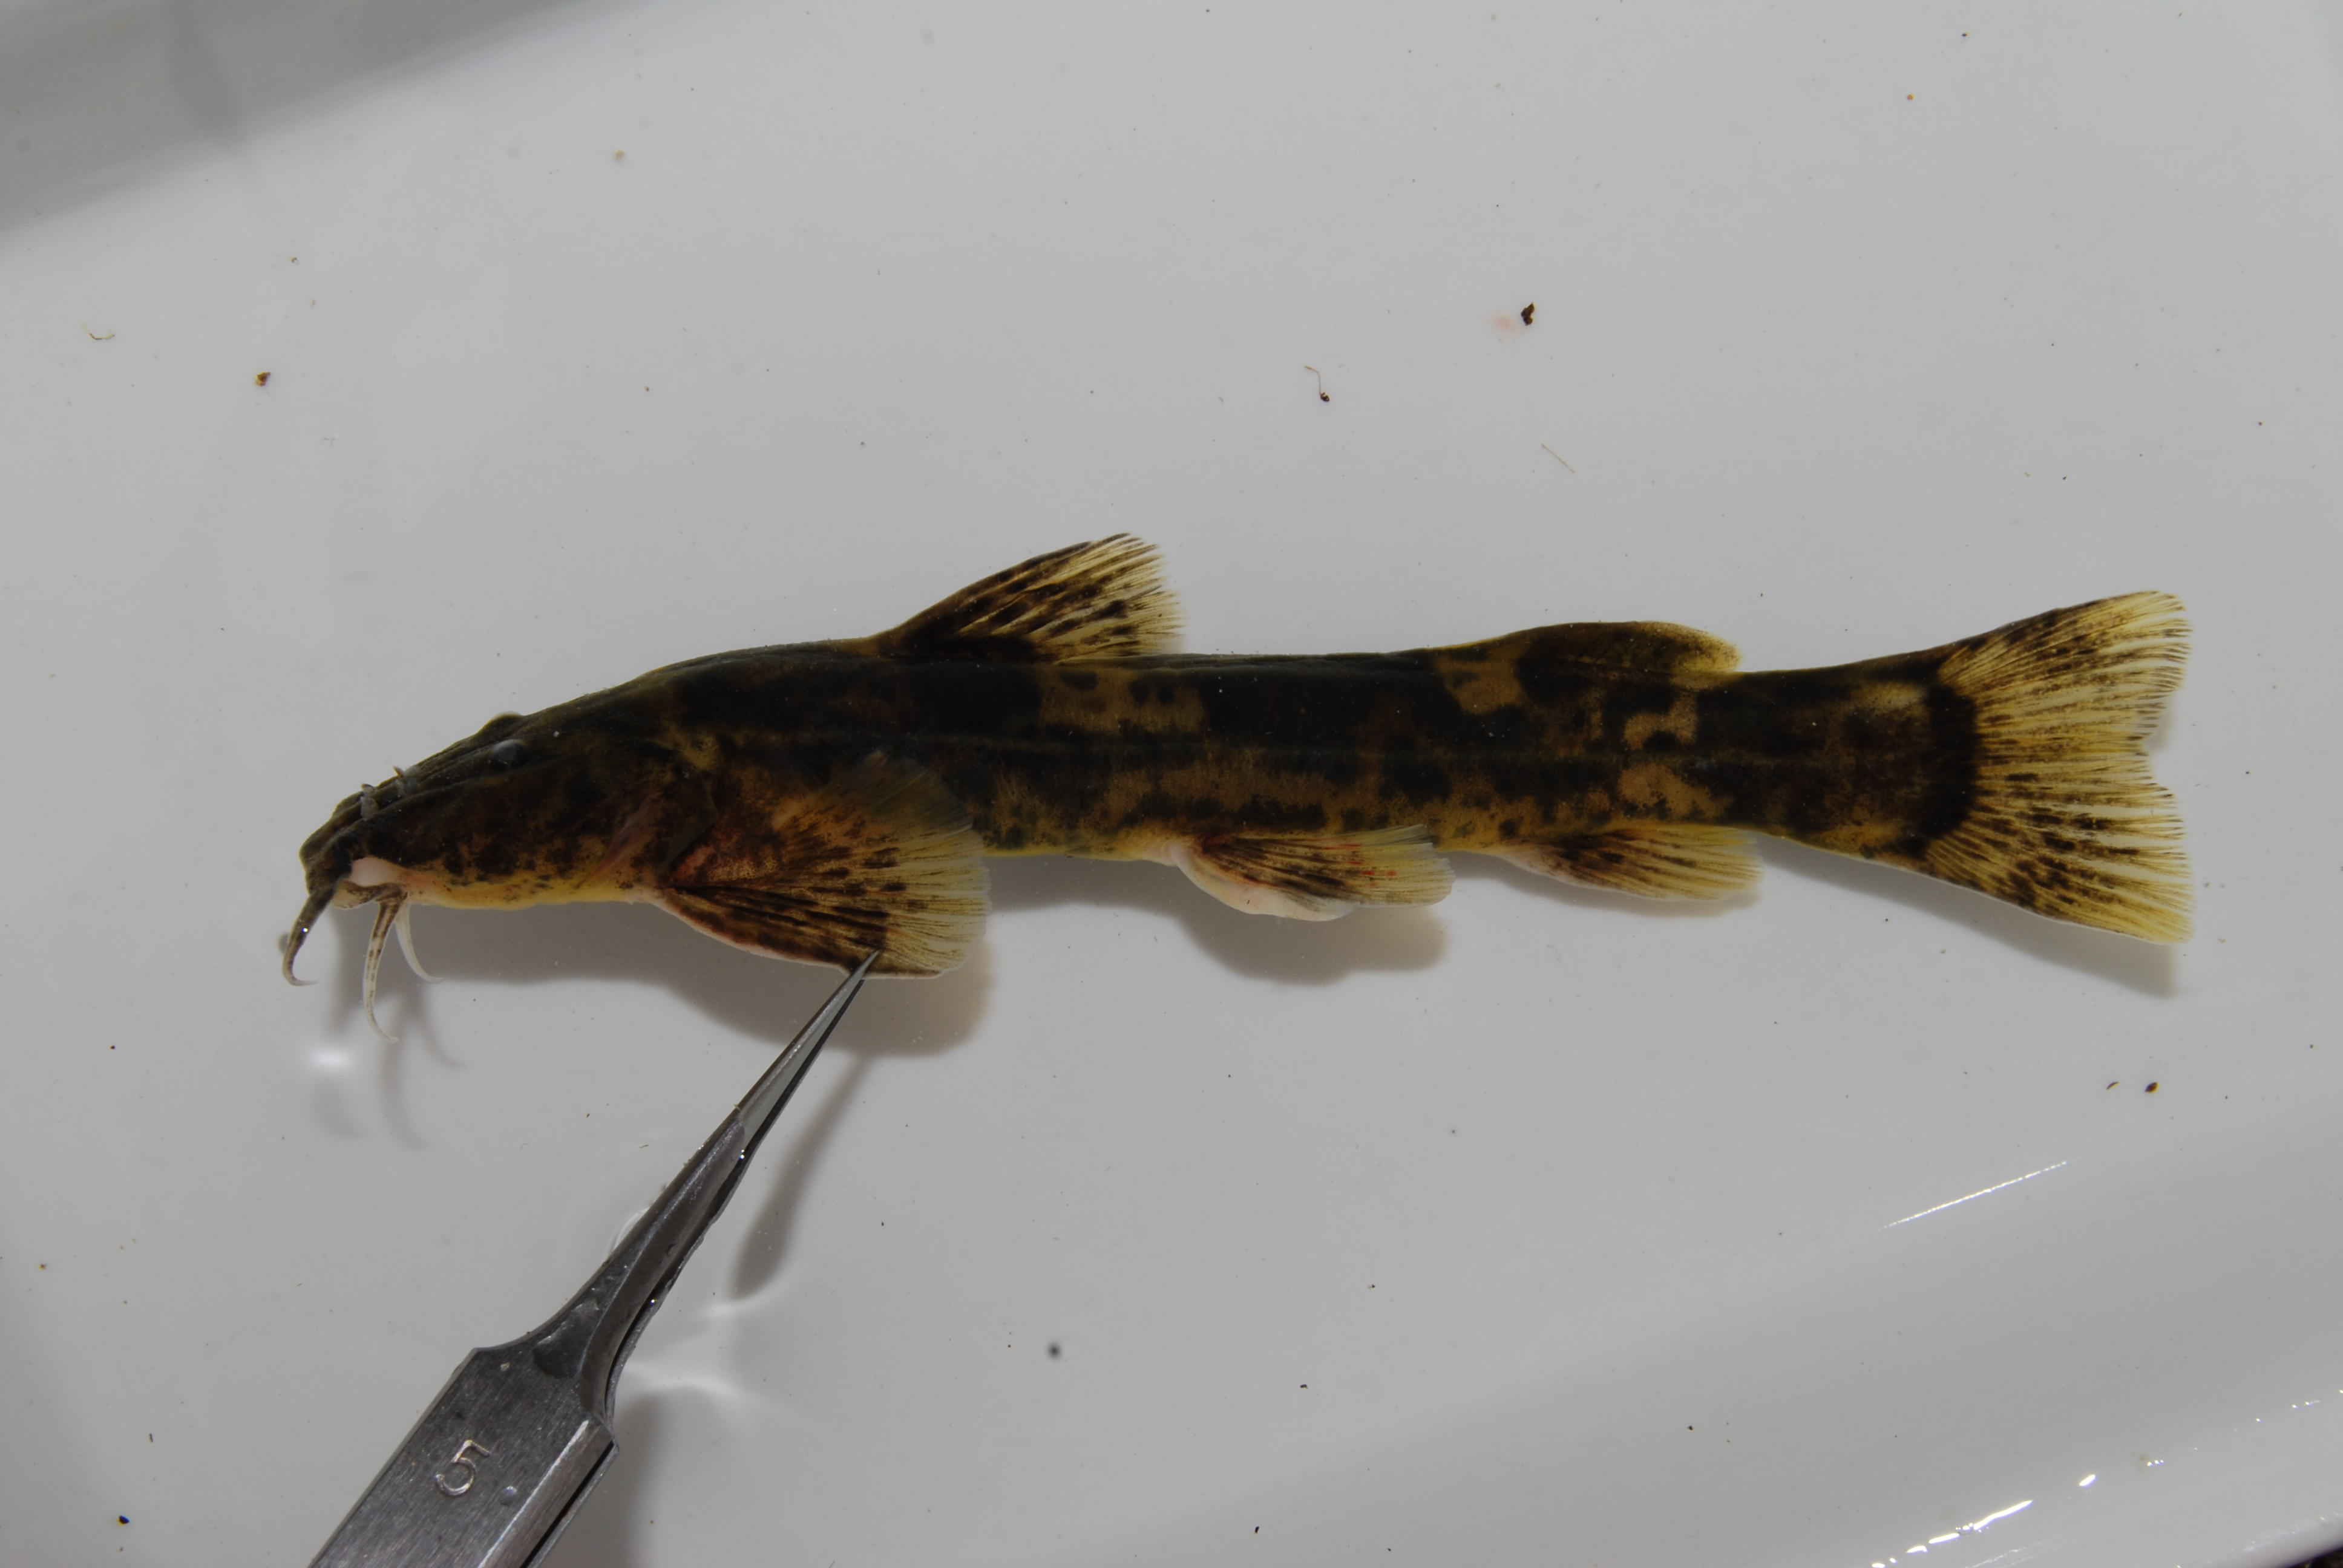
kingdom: Animalia
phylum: Chordata
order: Siluriformes
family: Amphiliidae
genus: Amphilius
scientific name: Amphilius uranoscopus
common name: Stargazer mountain catfish
